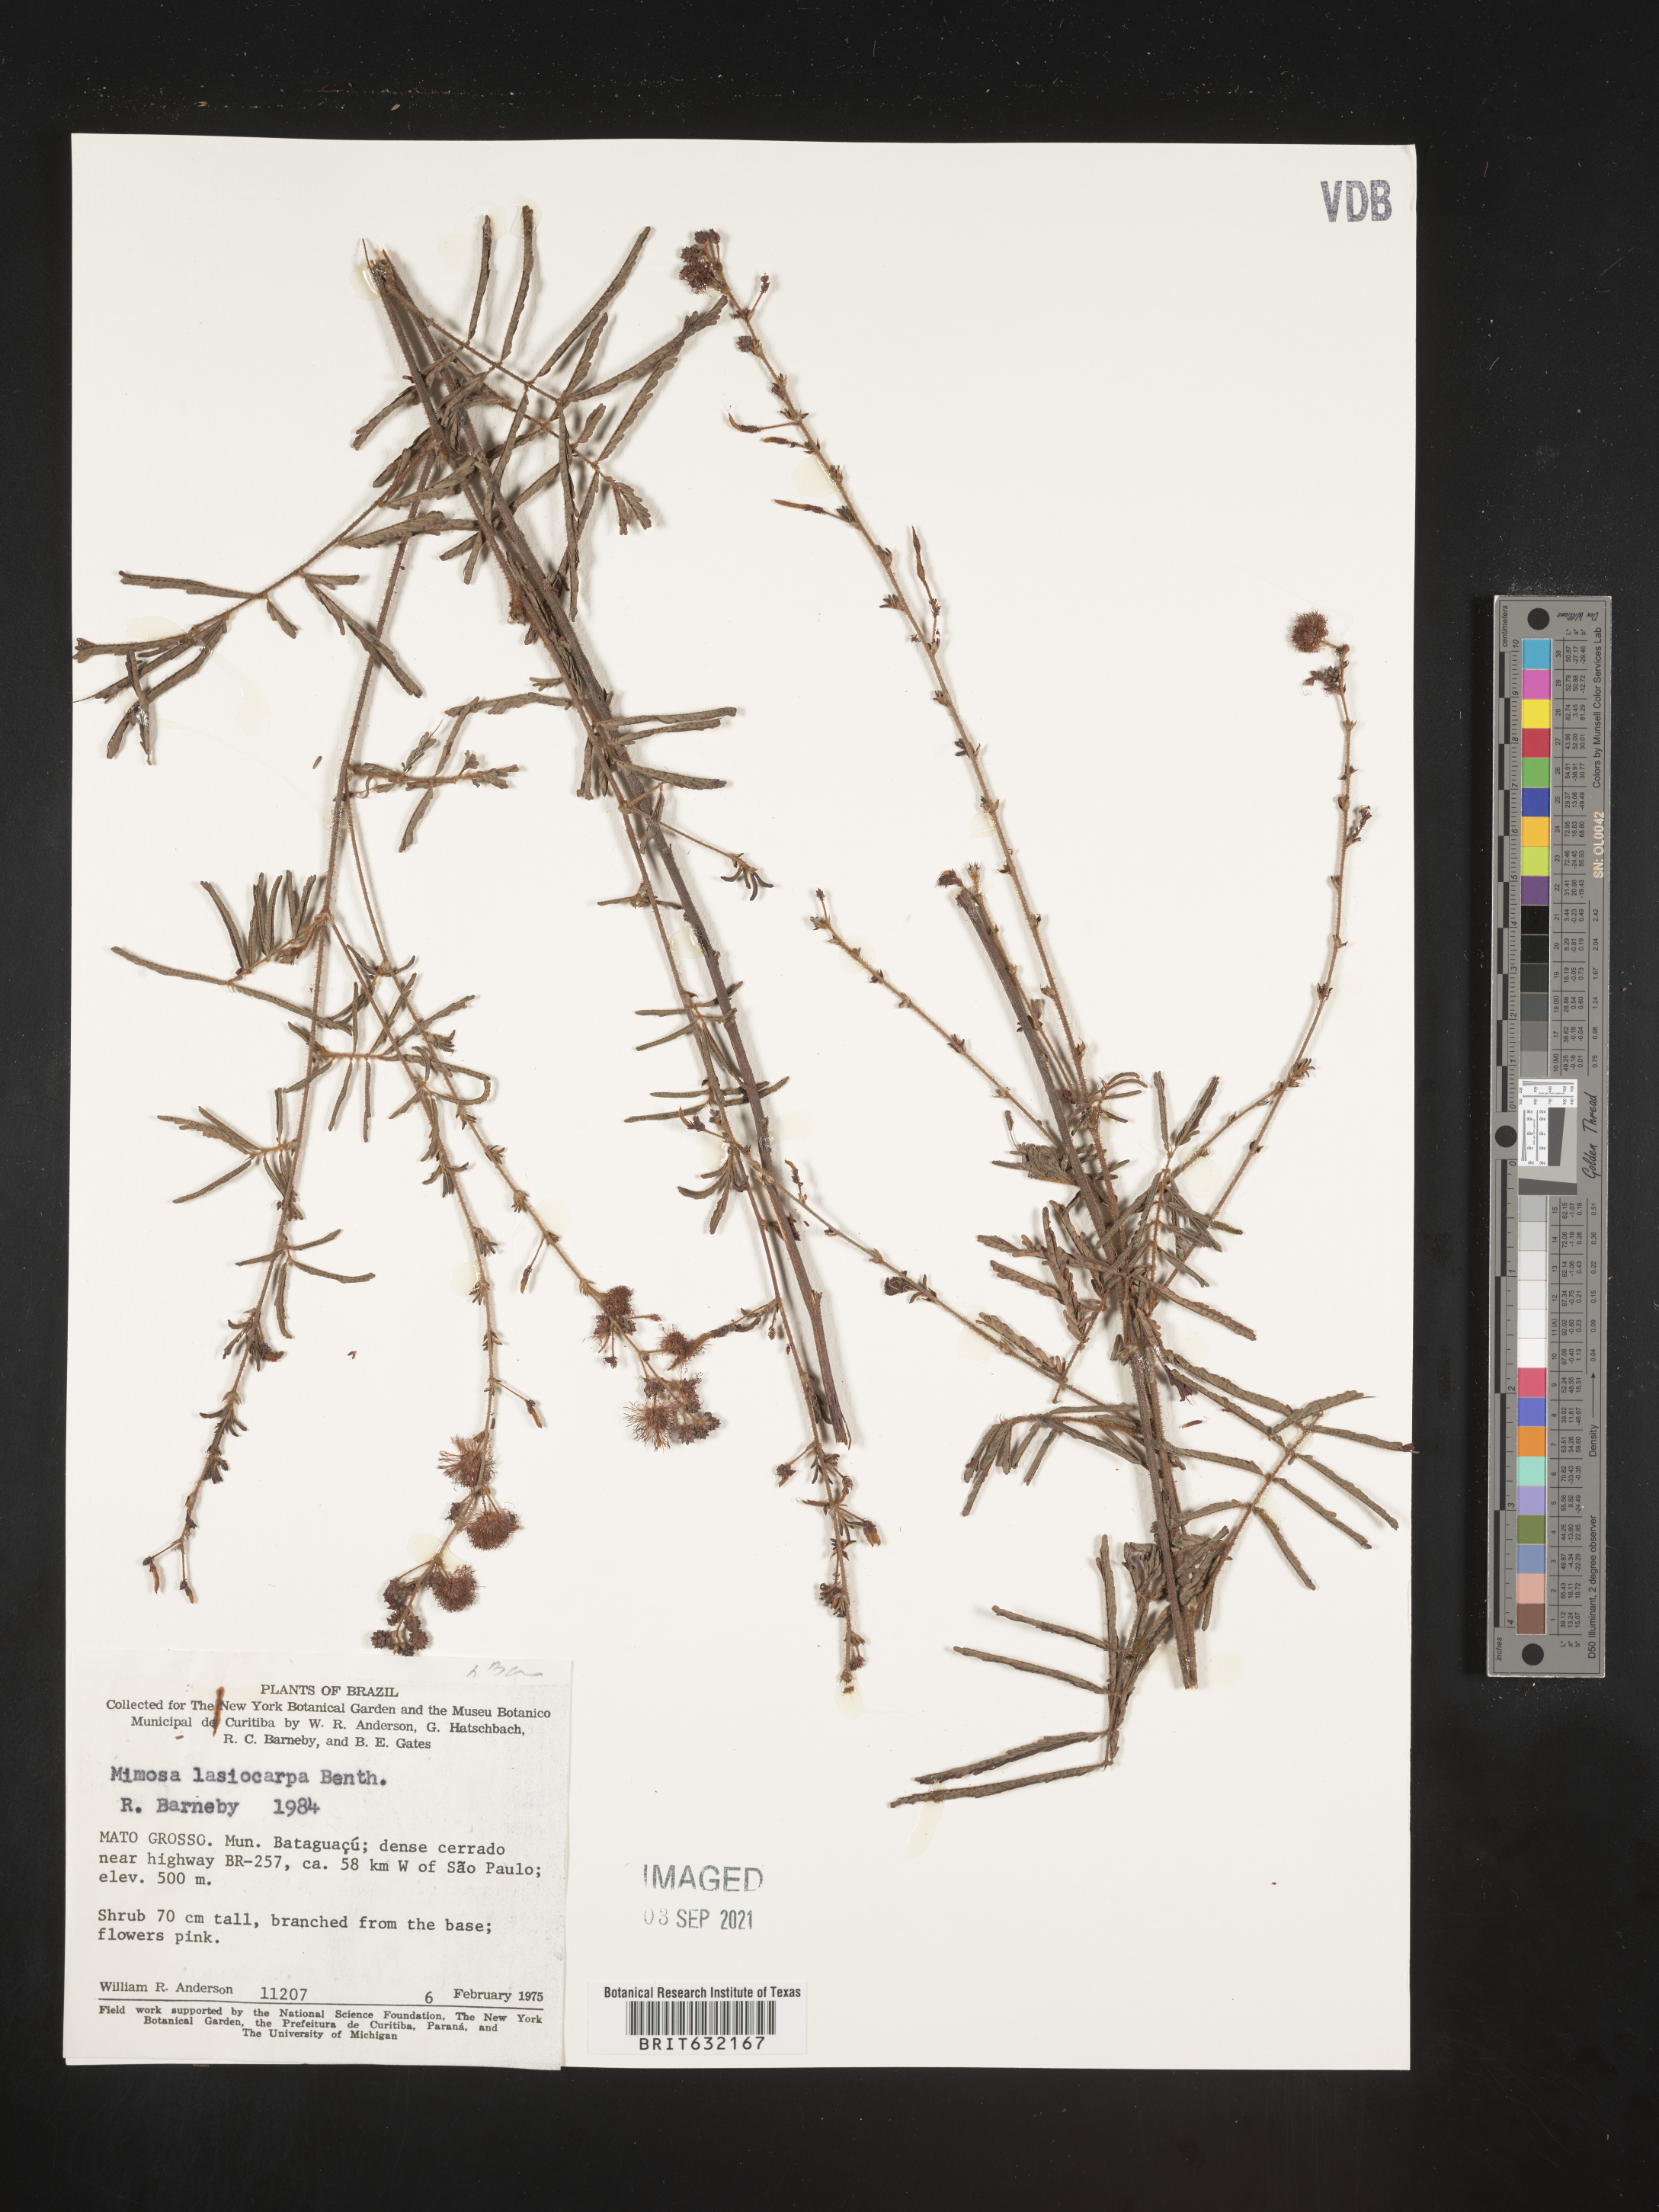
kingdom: Plantae
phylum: Tracheophyta
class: Magnoliopsida
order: Fabales
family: Fabaceae
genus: Mimosa
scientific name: Mimosa
